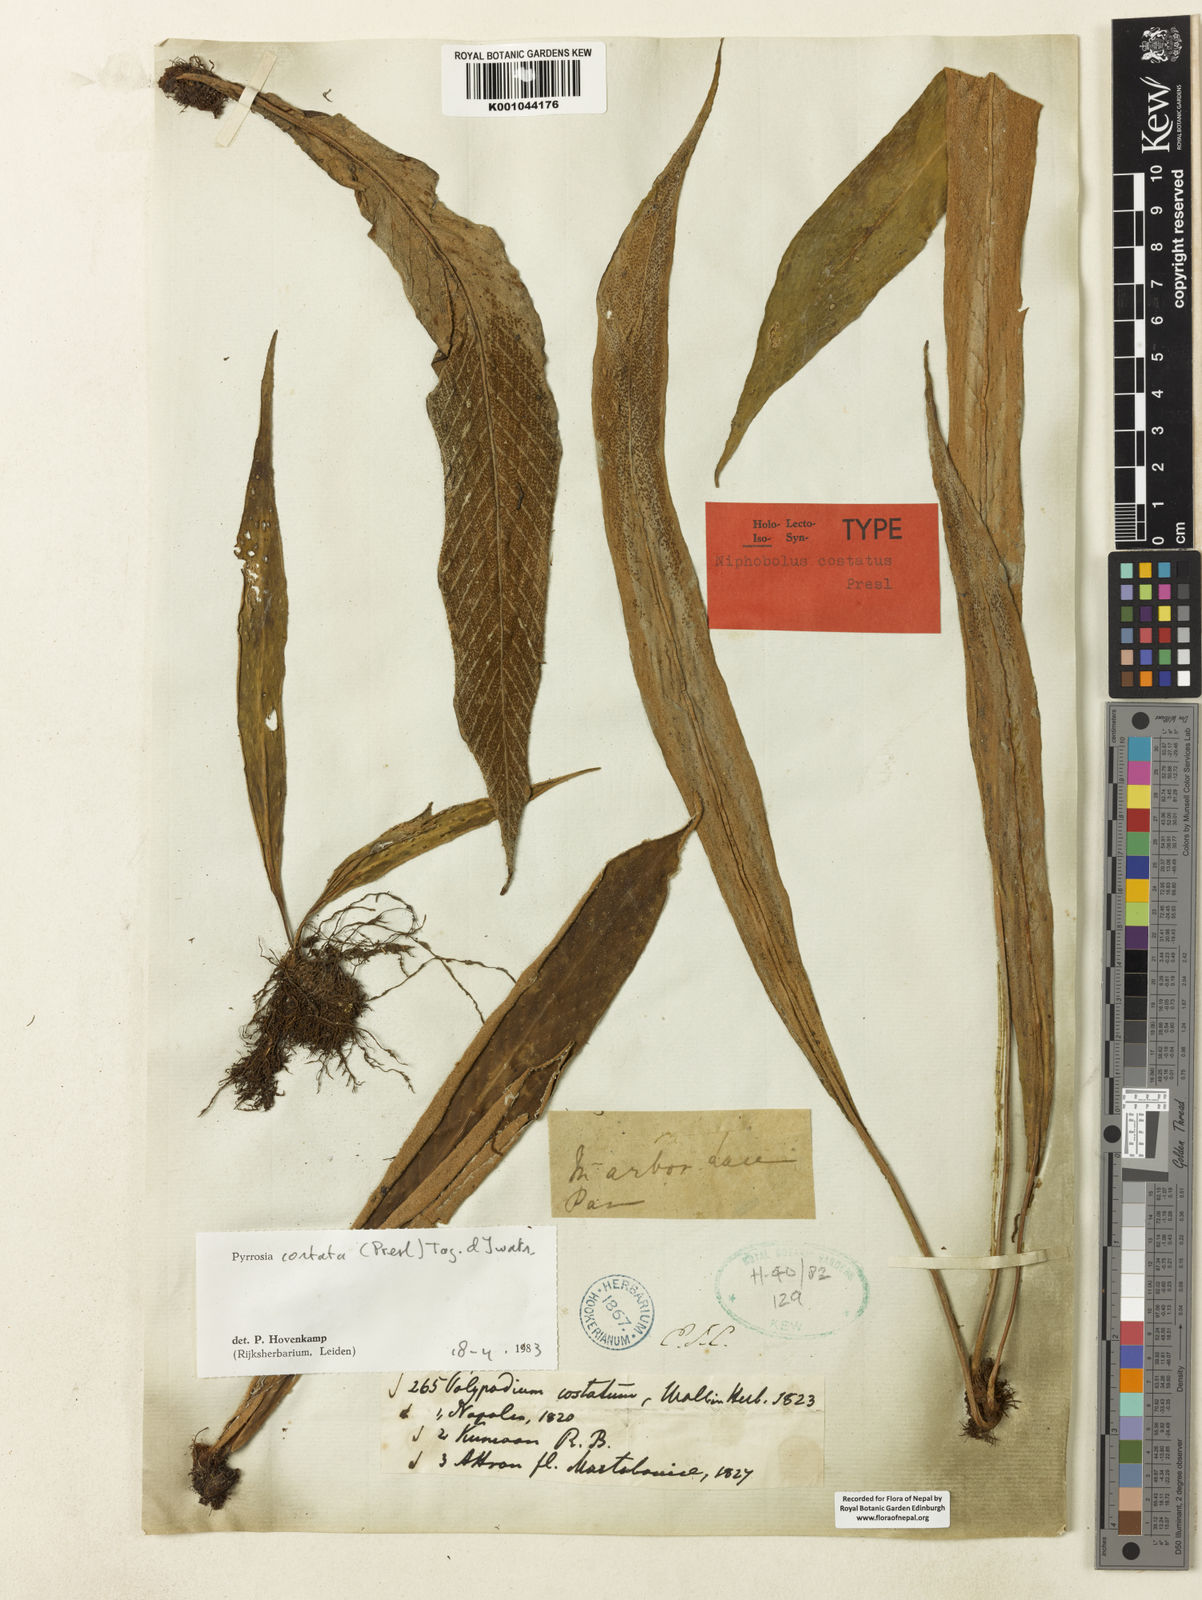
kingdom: Plantae
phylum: Tracheophyta
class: Polypodiopsida
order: Polypodiales
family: Polypodiaceae
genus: Pyrrosia
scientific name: Pyrrosia costata
